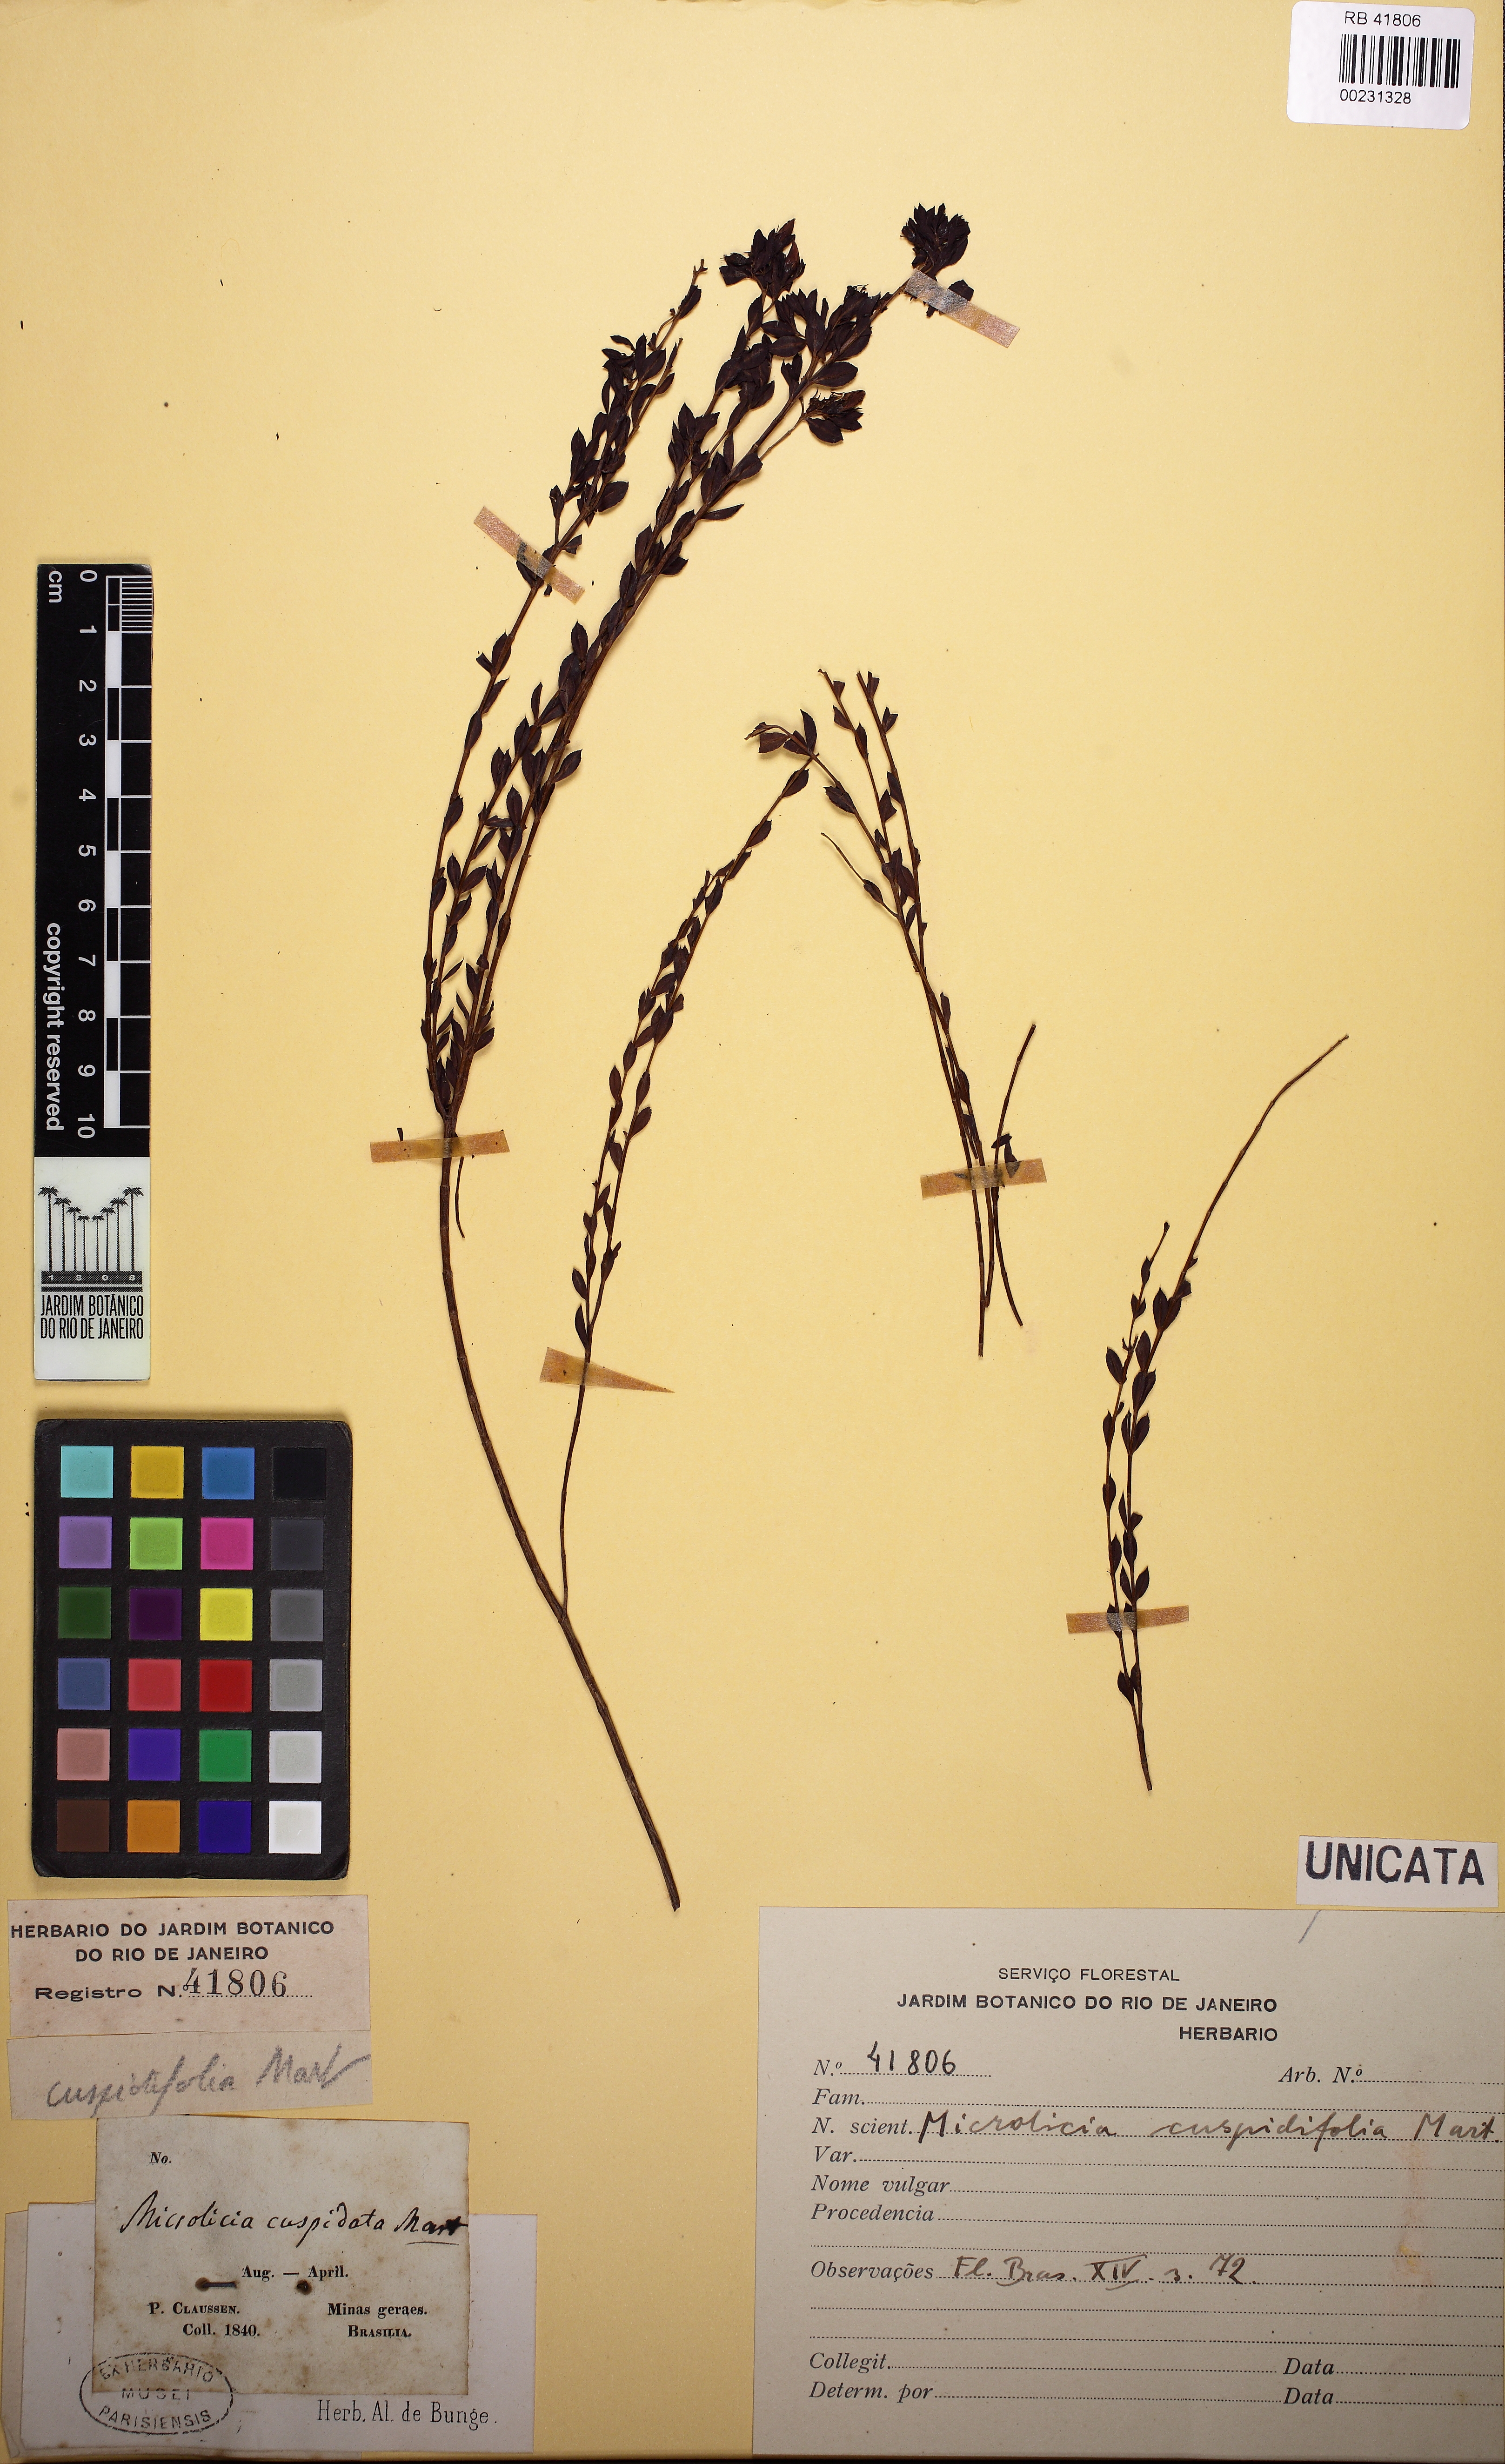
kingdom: Plantae
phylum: Tracheophyta
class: Magnoliopsida
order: Myrtales
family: Melastomataceae
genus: Microlicia
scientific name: Microlicia cuspidifolia
